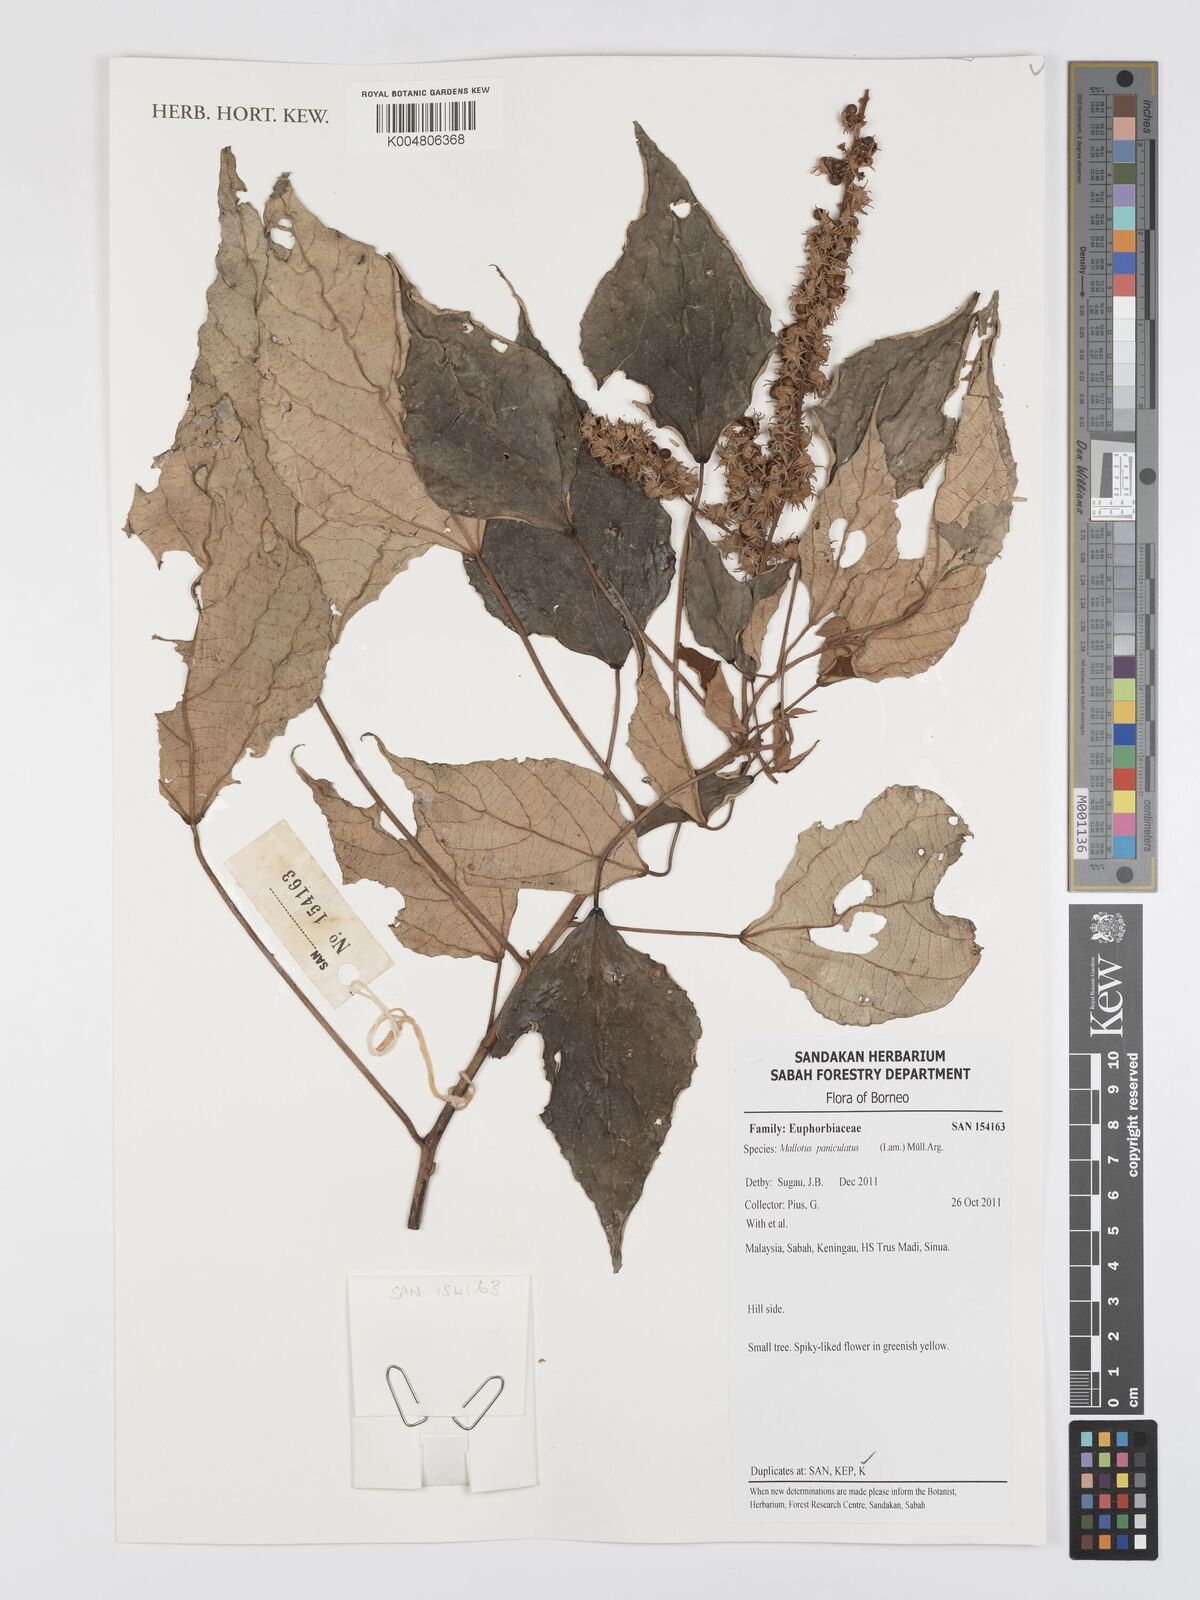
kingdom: Plantae
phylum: Tracheophyta
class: Magnoliopsida
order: Malpighiales
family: Euphorbiaceae
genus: Mallotus
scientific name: Mallotus paniculatus
